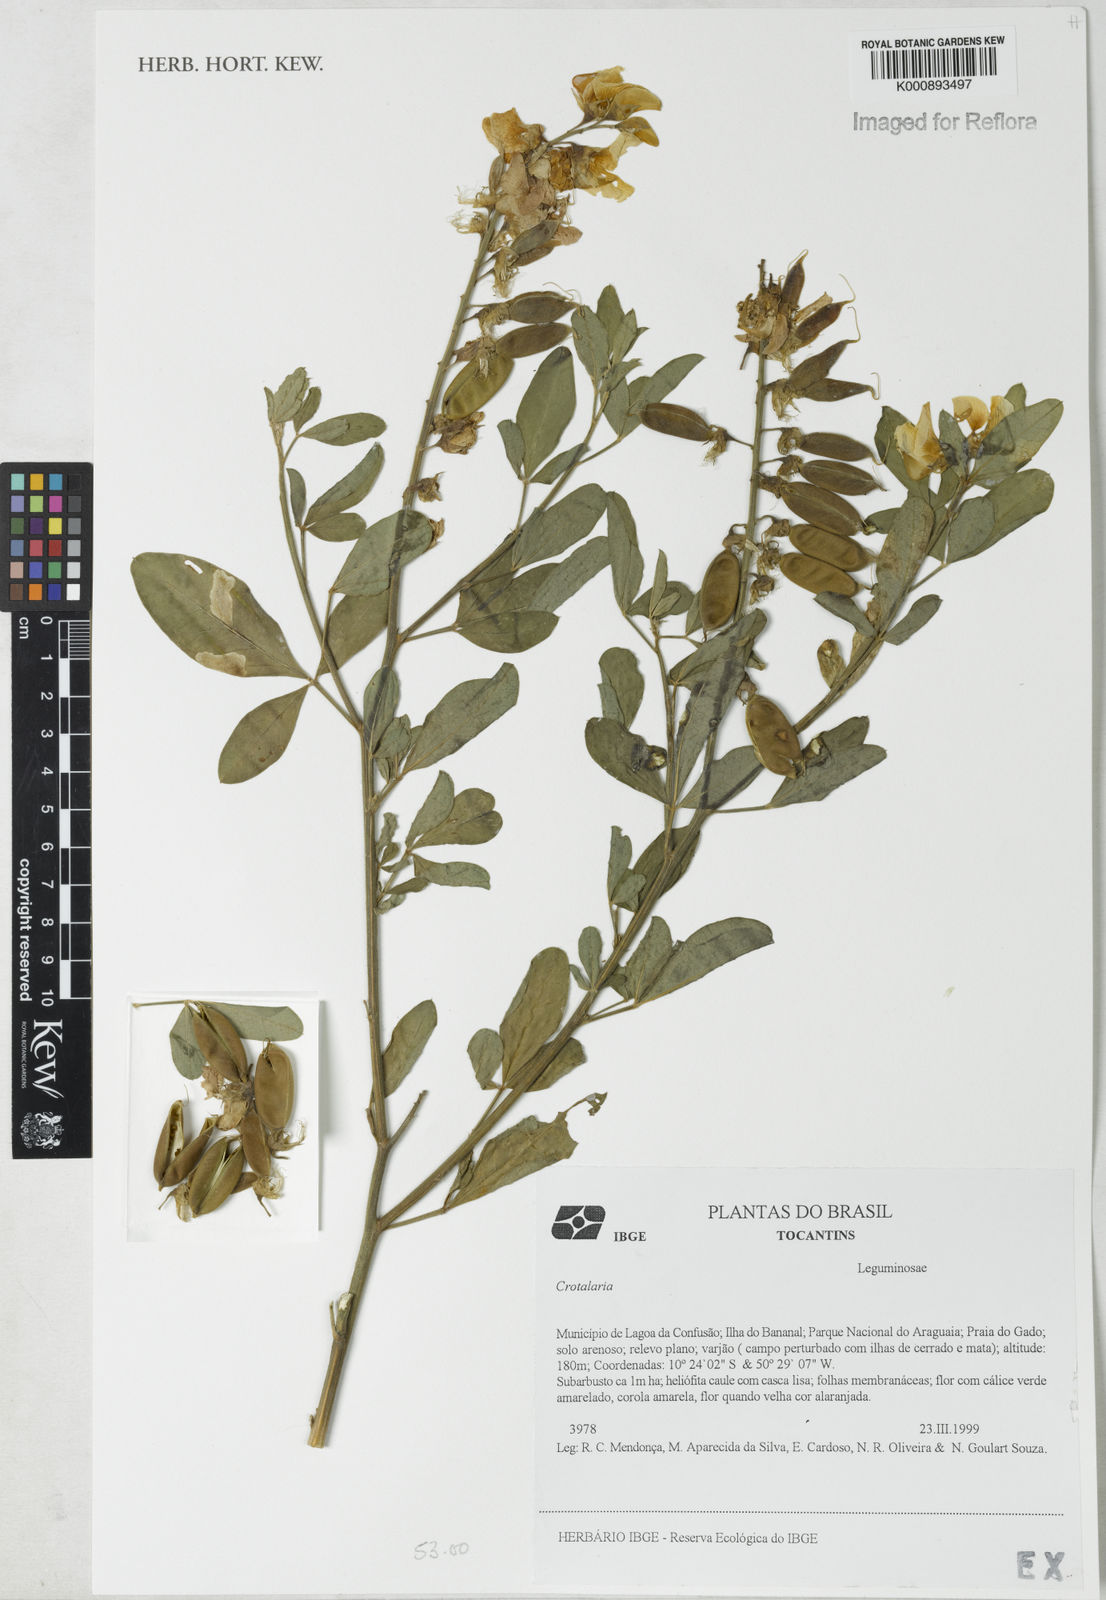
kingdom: Plantae
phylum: Tracheophyta
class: Magnoliopsida
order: Fabales
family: Fabaceae
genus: Crotalaria
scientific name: Crotalaria maypurensis
